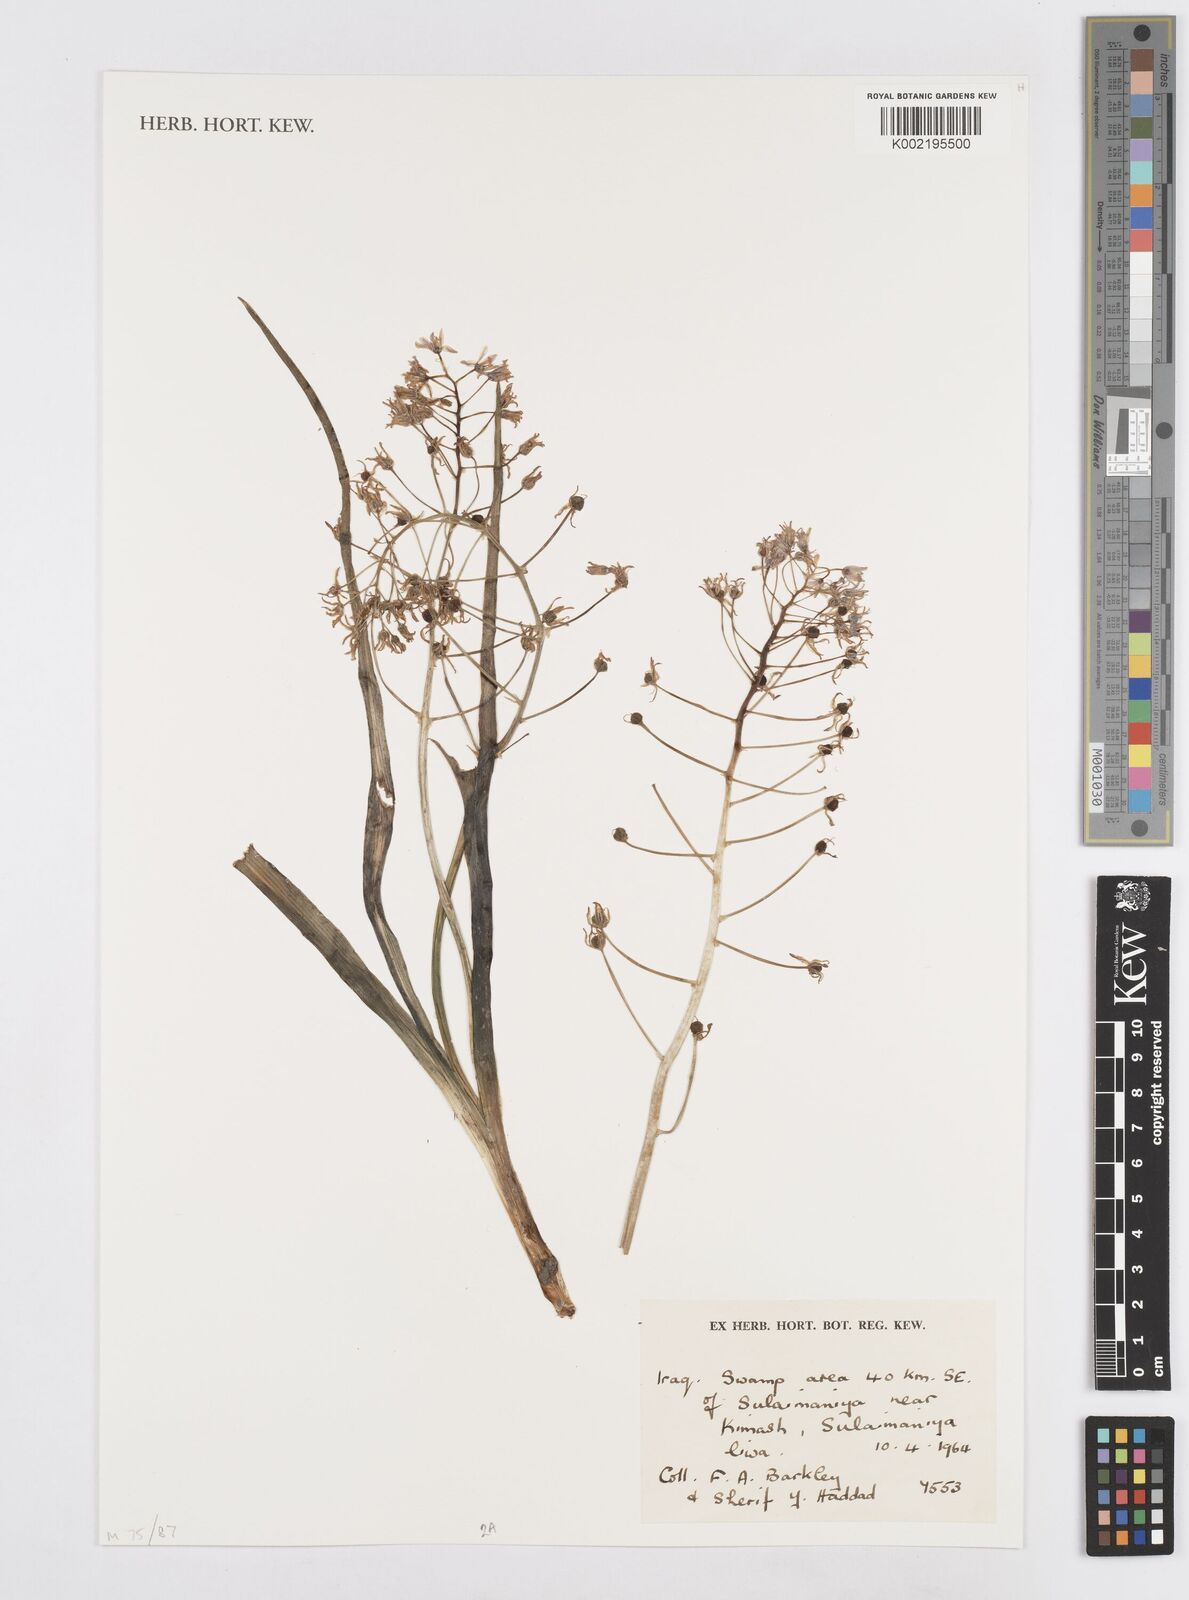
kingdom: Plantae
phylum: Tracheophyta
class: Liliopsida
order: Asparagales
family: Asparagaceae
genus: Ornithogalum
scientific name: Ornithogalum
